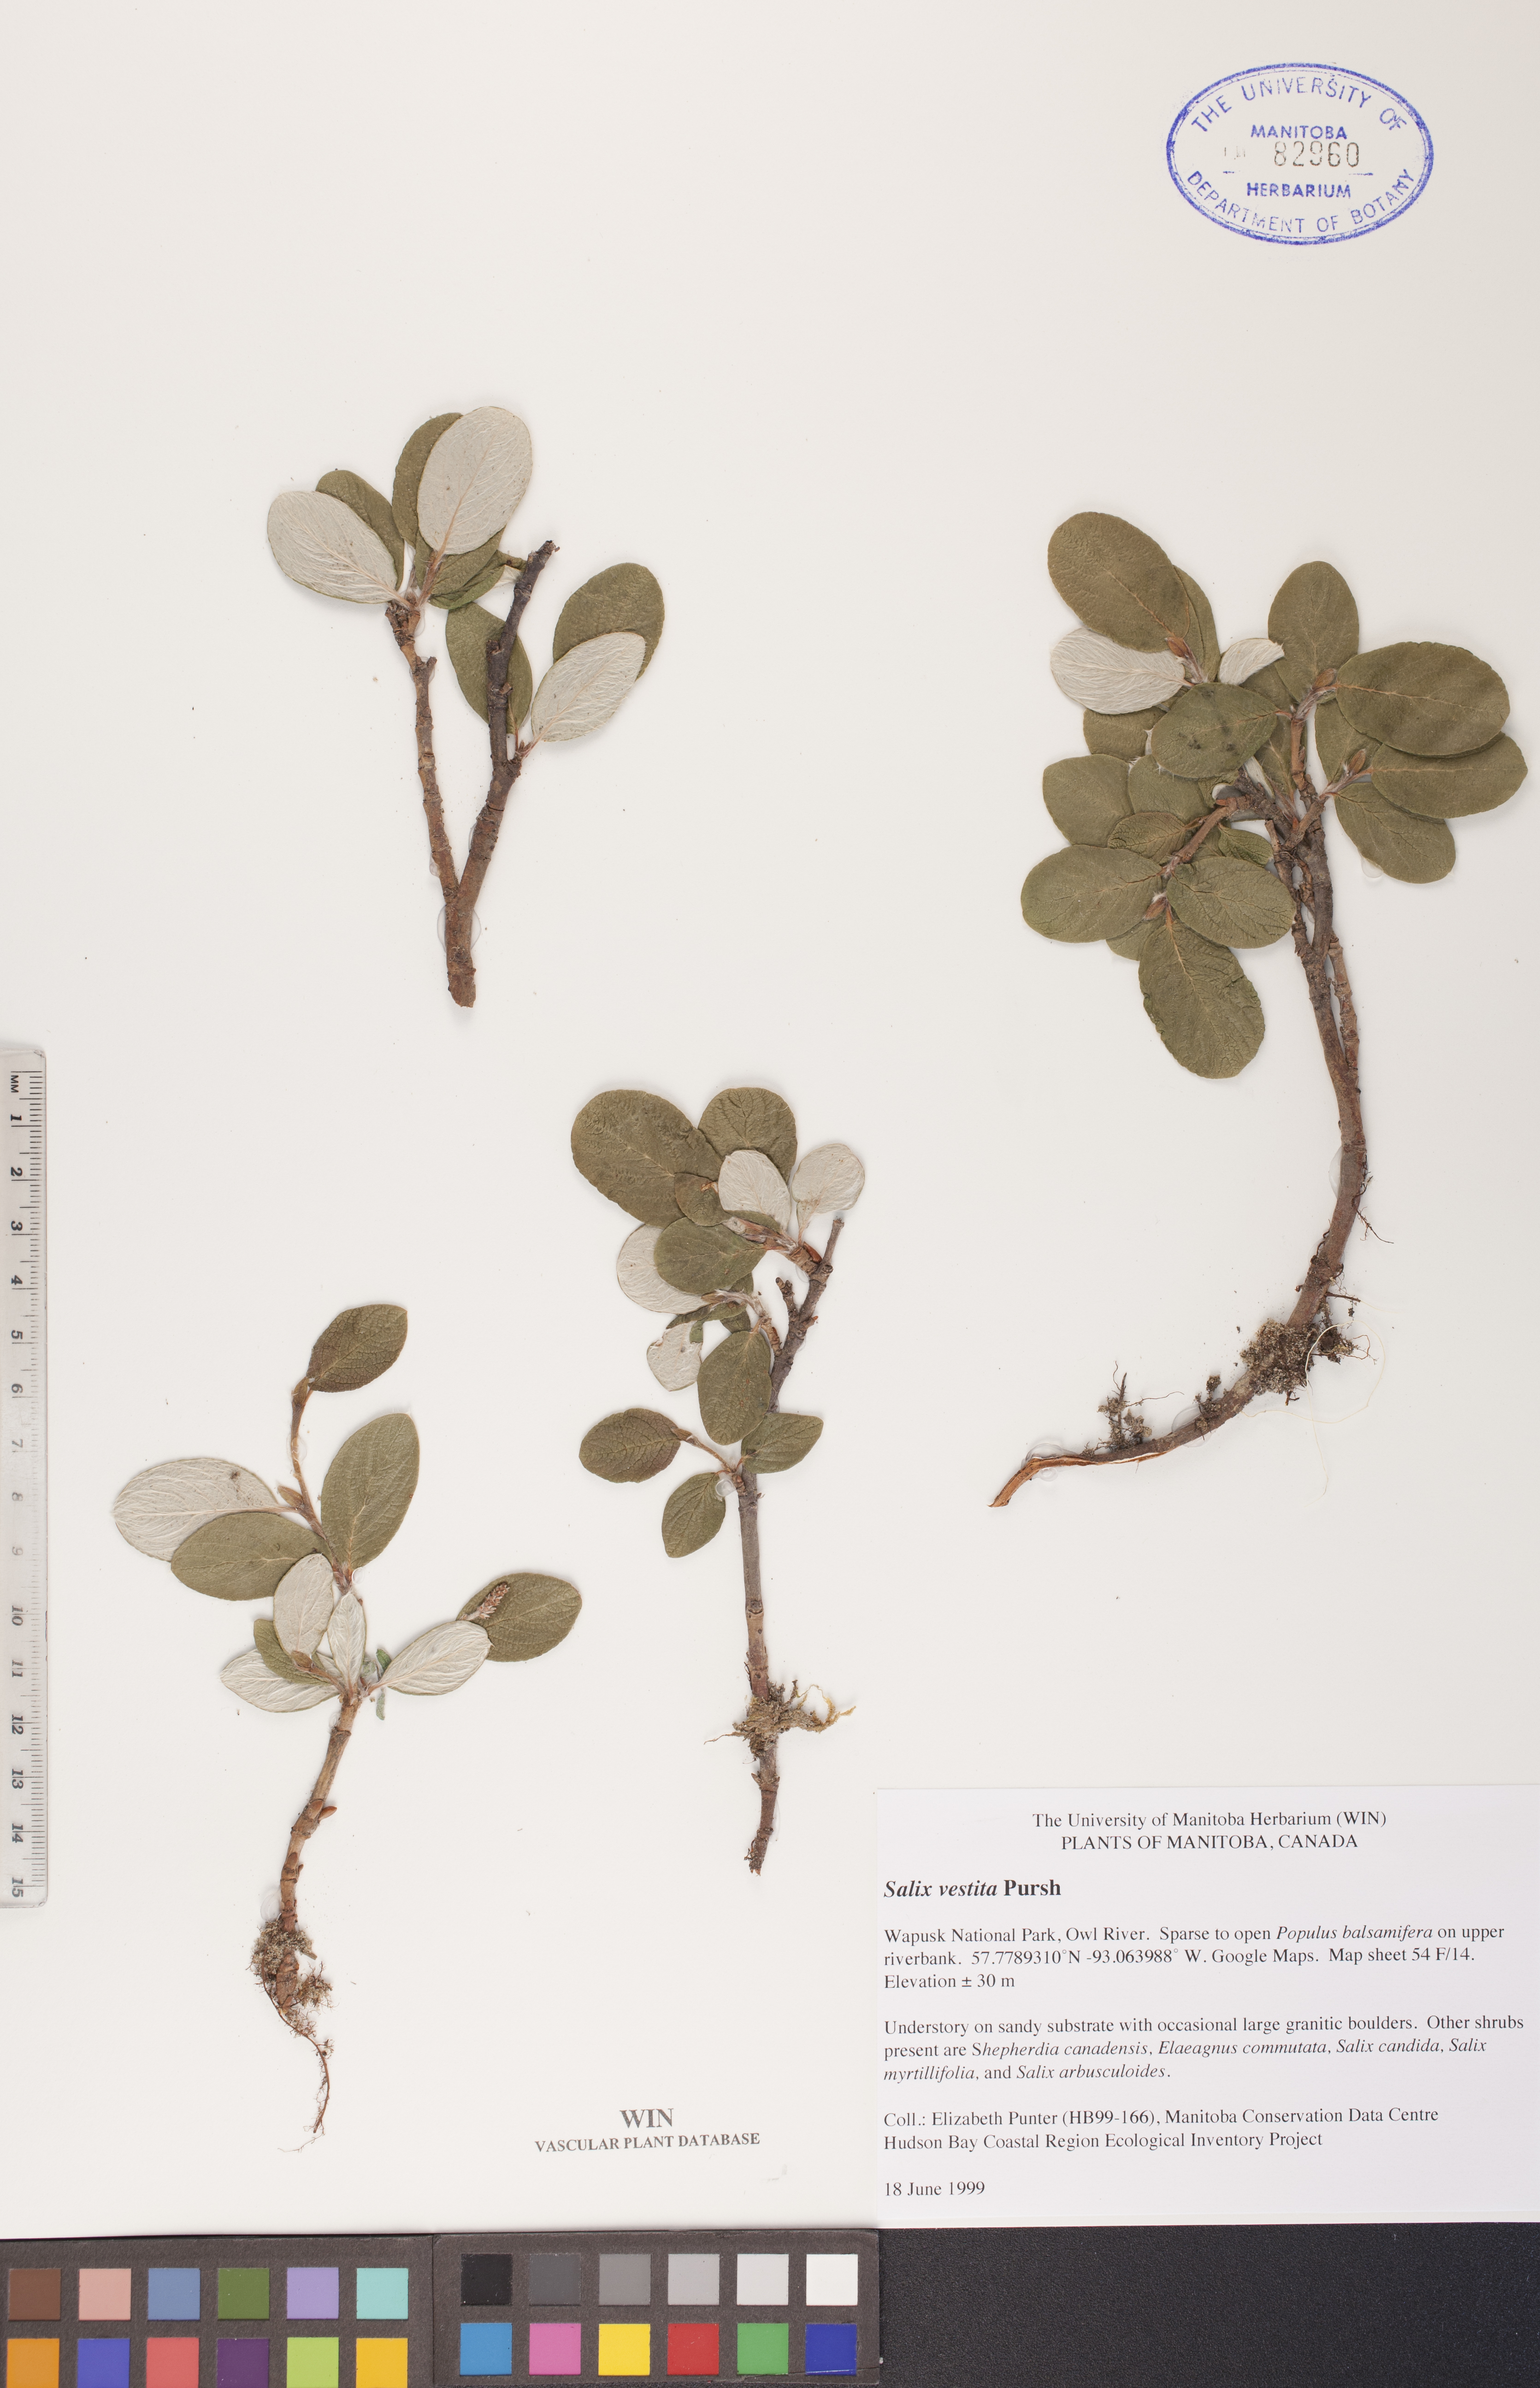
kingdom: Plantae
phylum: Tracheophyta
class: Magnoliopsida
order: Malpighiales
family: Salicaceae
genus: Salix
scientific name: Salix vestita
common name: Hairy willow
